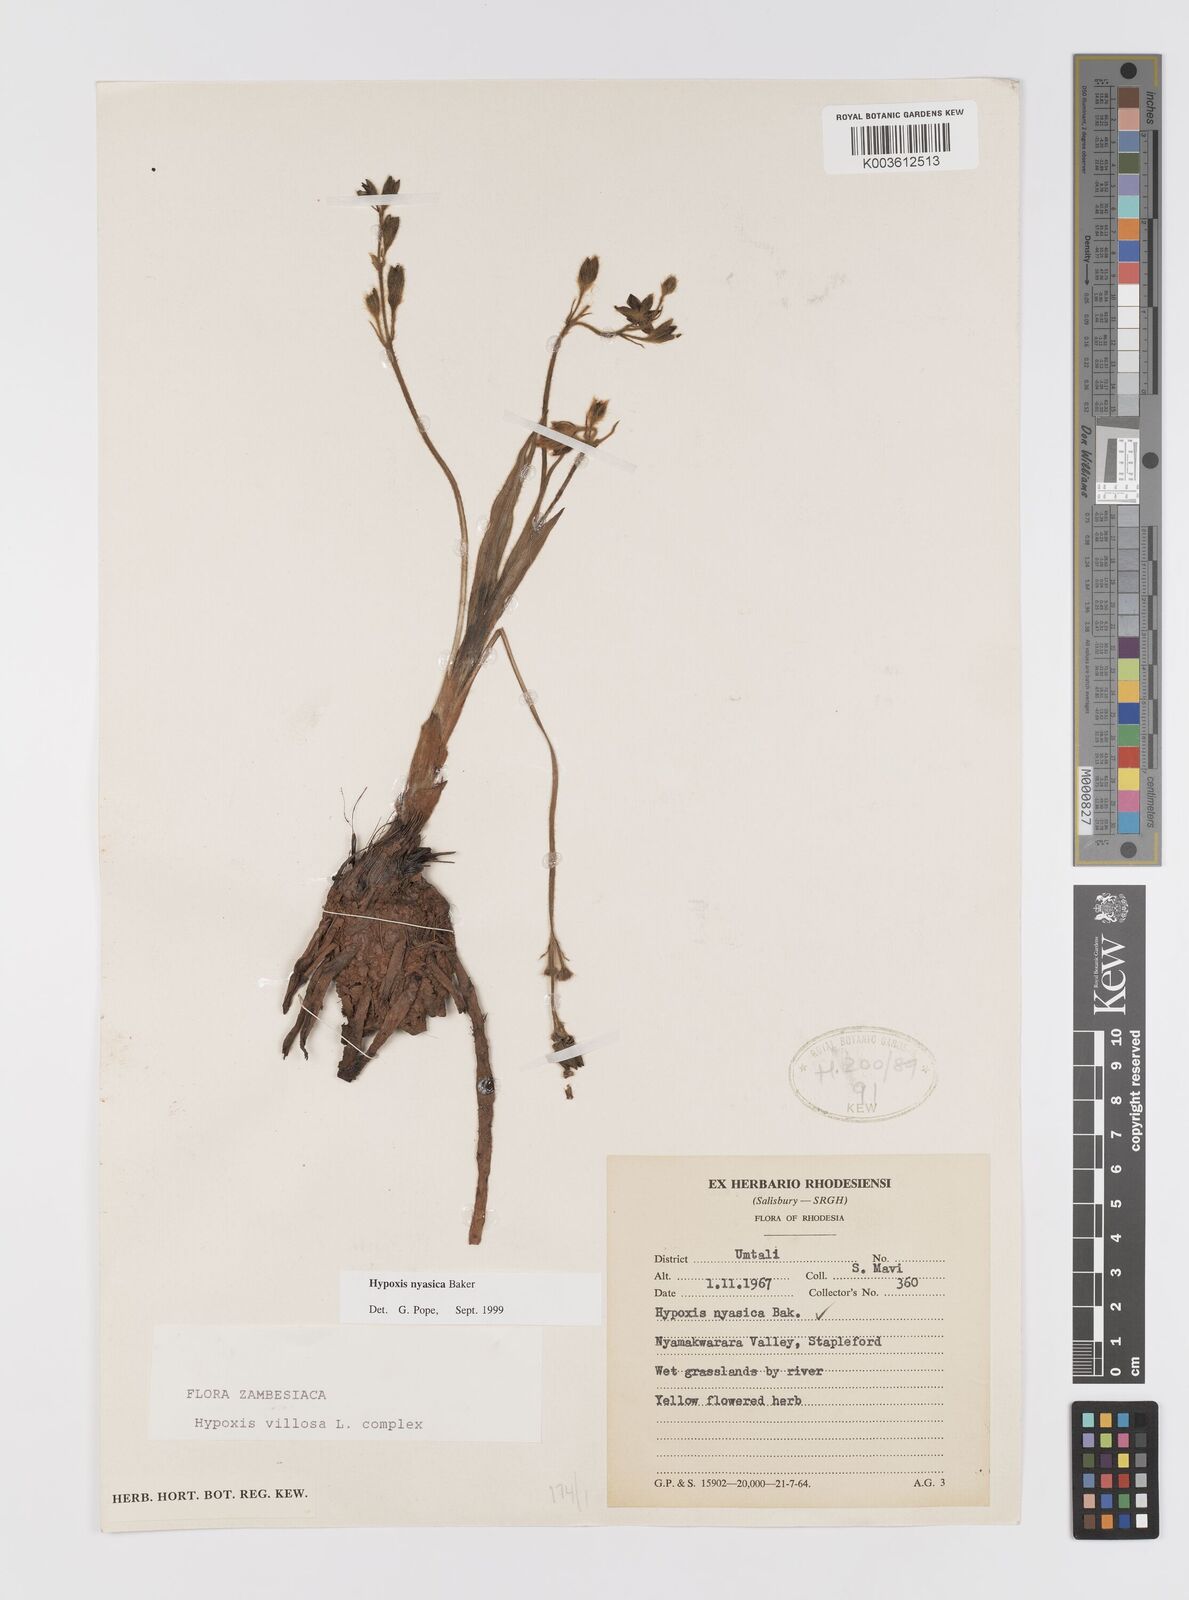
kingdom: Plantae
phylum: Tracheophyta
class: Liliopsida
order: Asparagales
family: Hypoxidaceae
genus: Hypoxis
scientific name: Hypoxis nyasica
